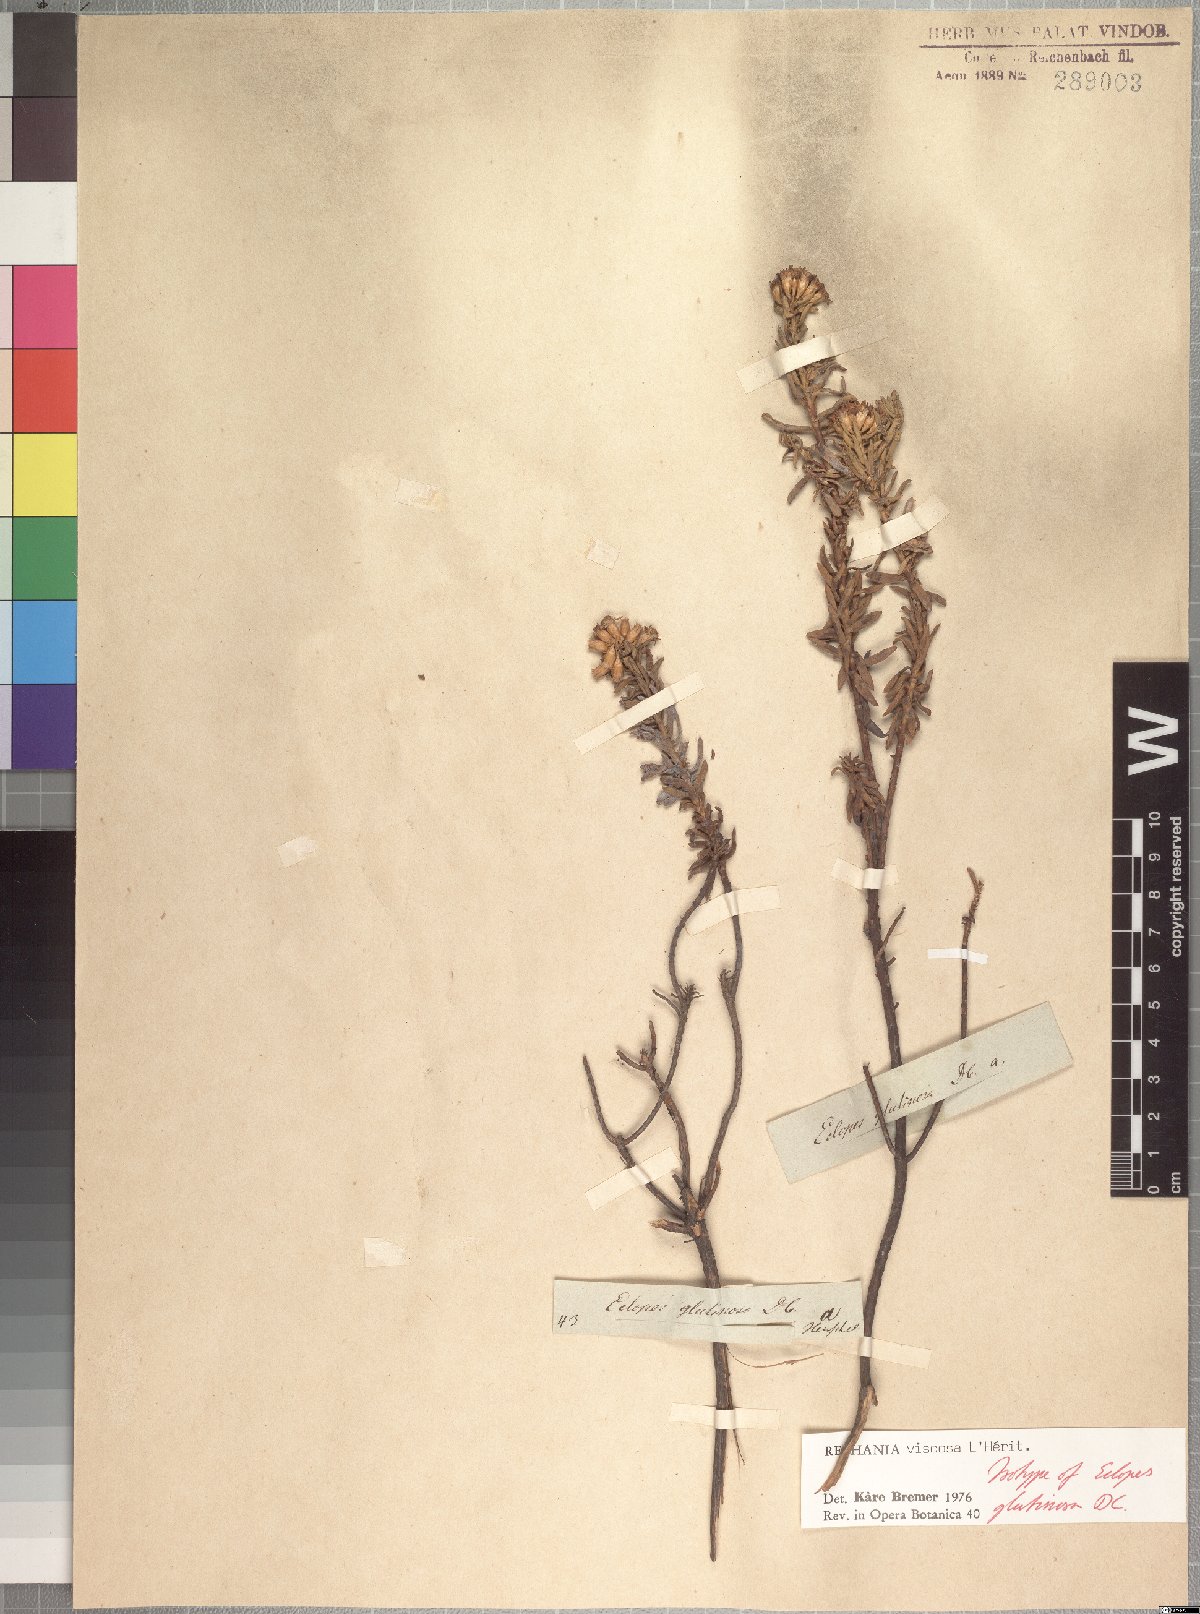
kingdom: Plantae
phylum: Tracheophyta
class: Magnoliopsida
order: Asterales
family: Asteraceae
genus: Oedera
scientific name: Oedera viscosa
